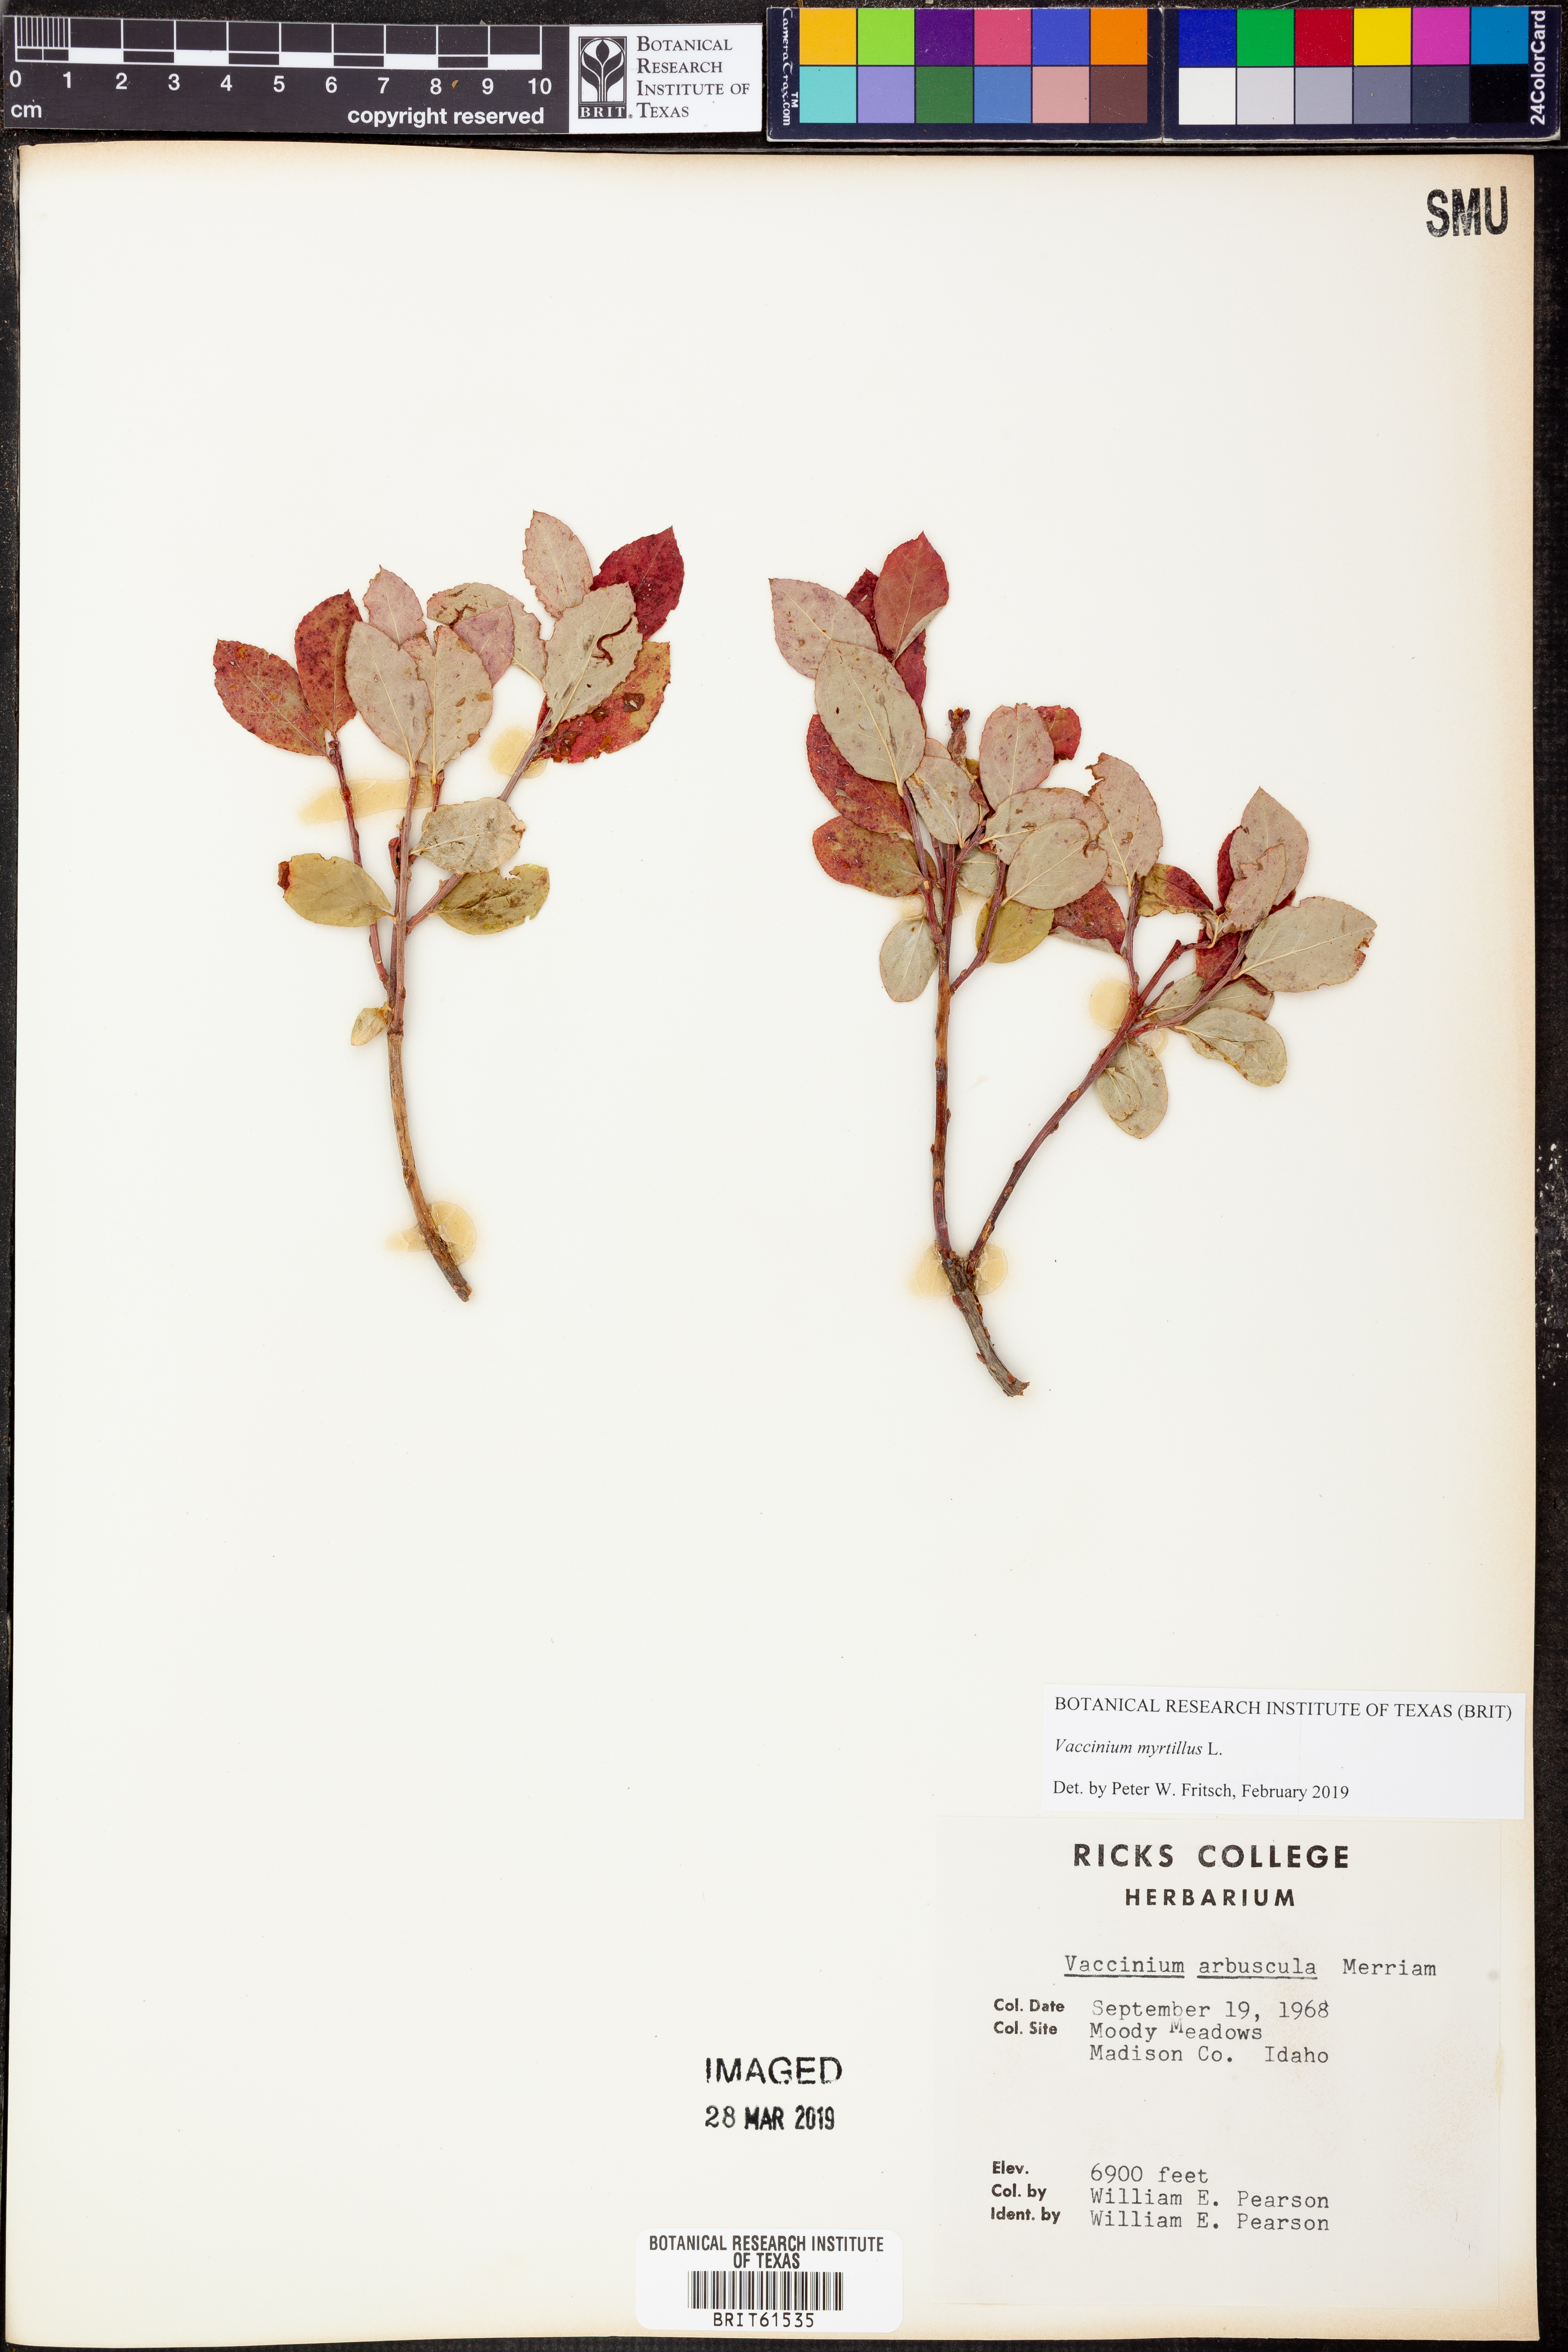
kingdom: Plantae
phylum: Tracheophyta
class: Magnoliopsida
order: Ericales
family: Ericaceae
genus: Vaccinium
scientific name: Vaccinium deliciosum
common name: Cascade bilberry
